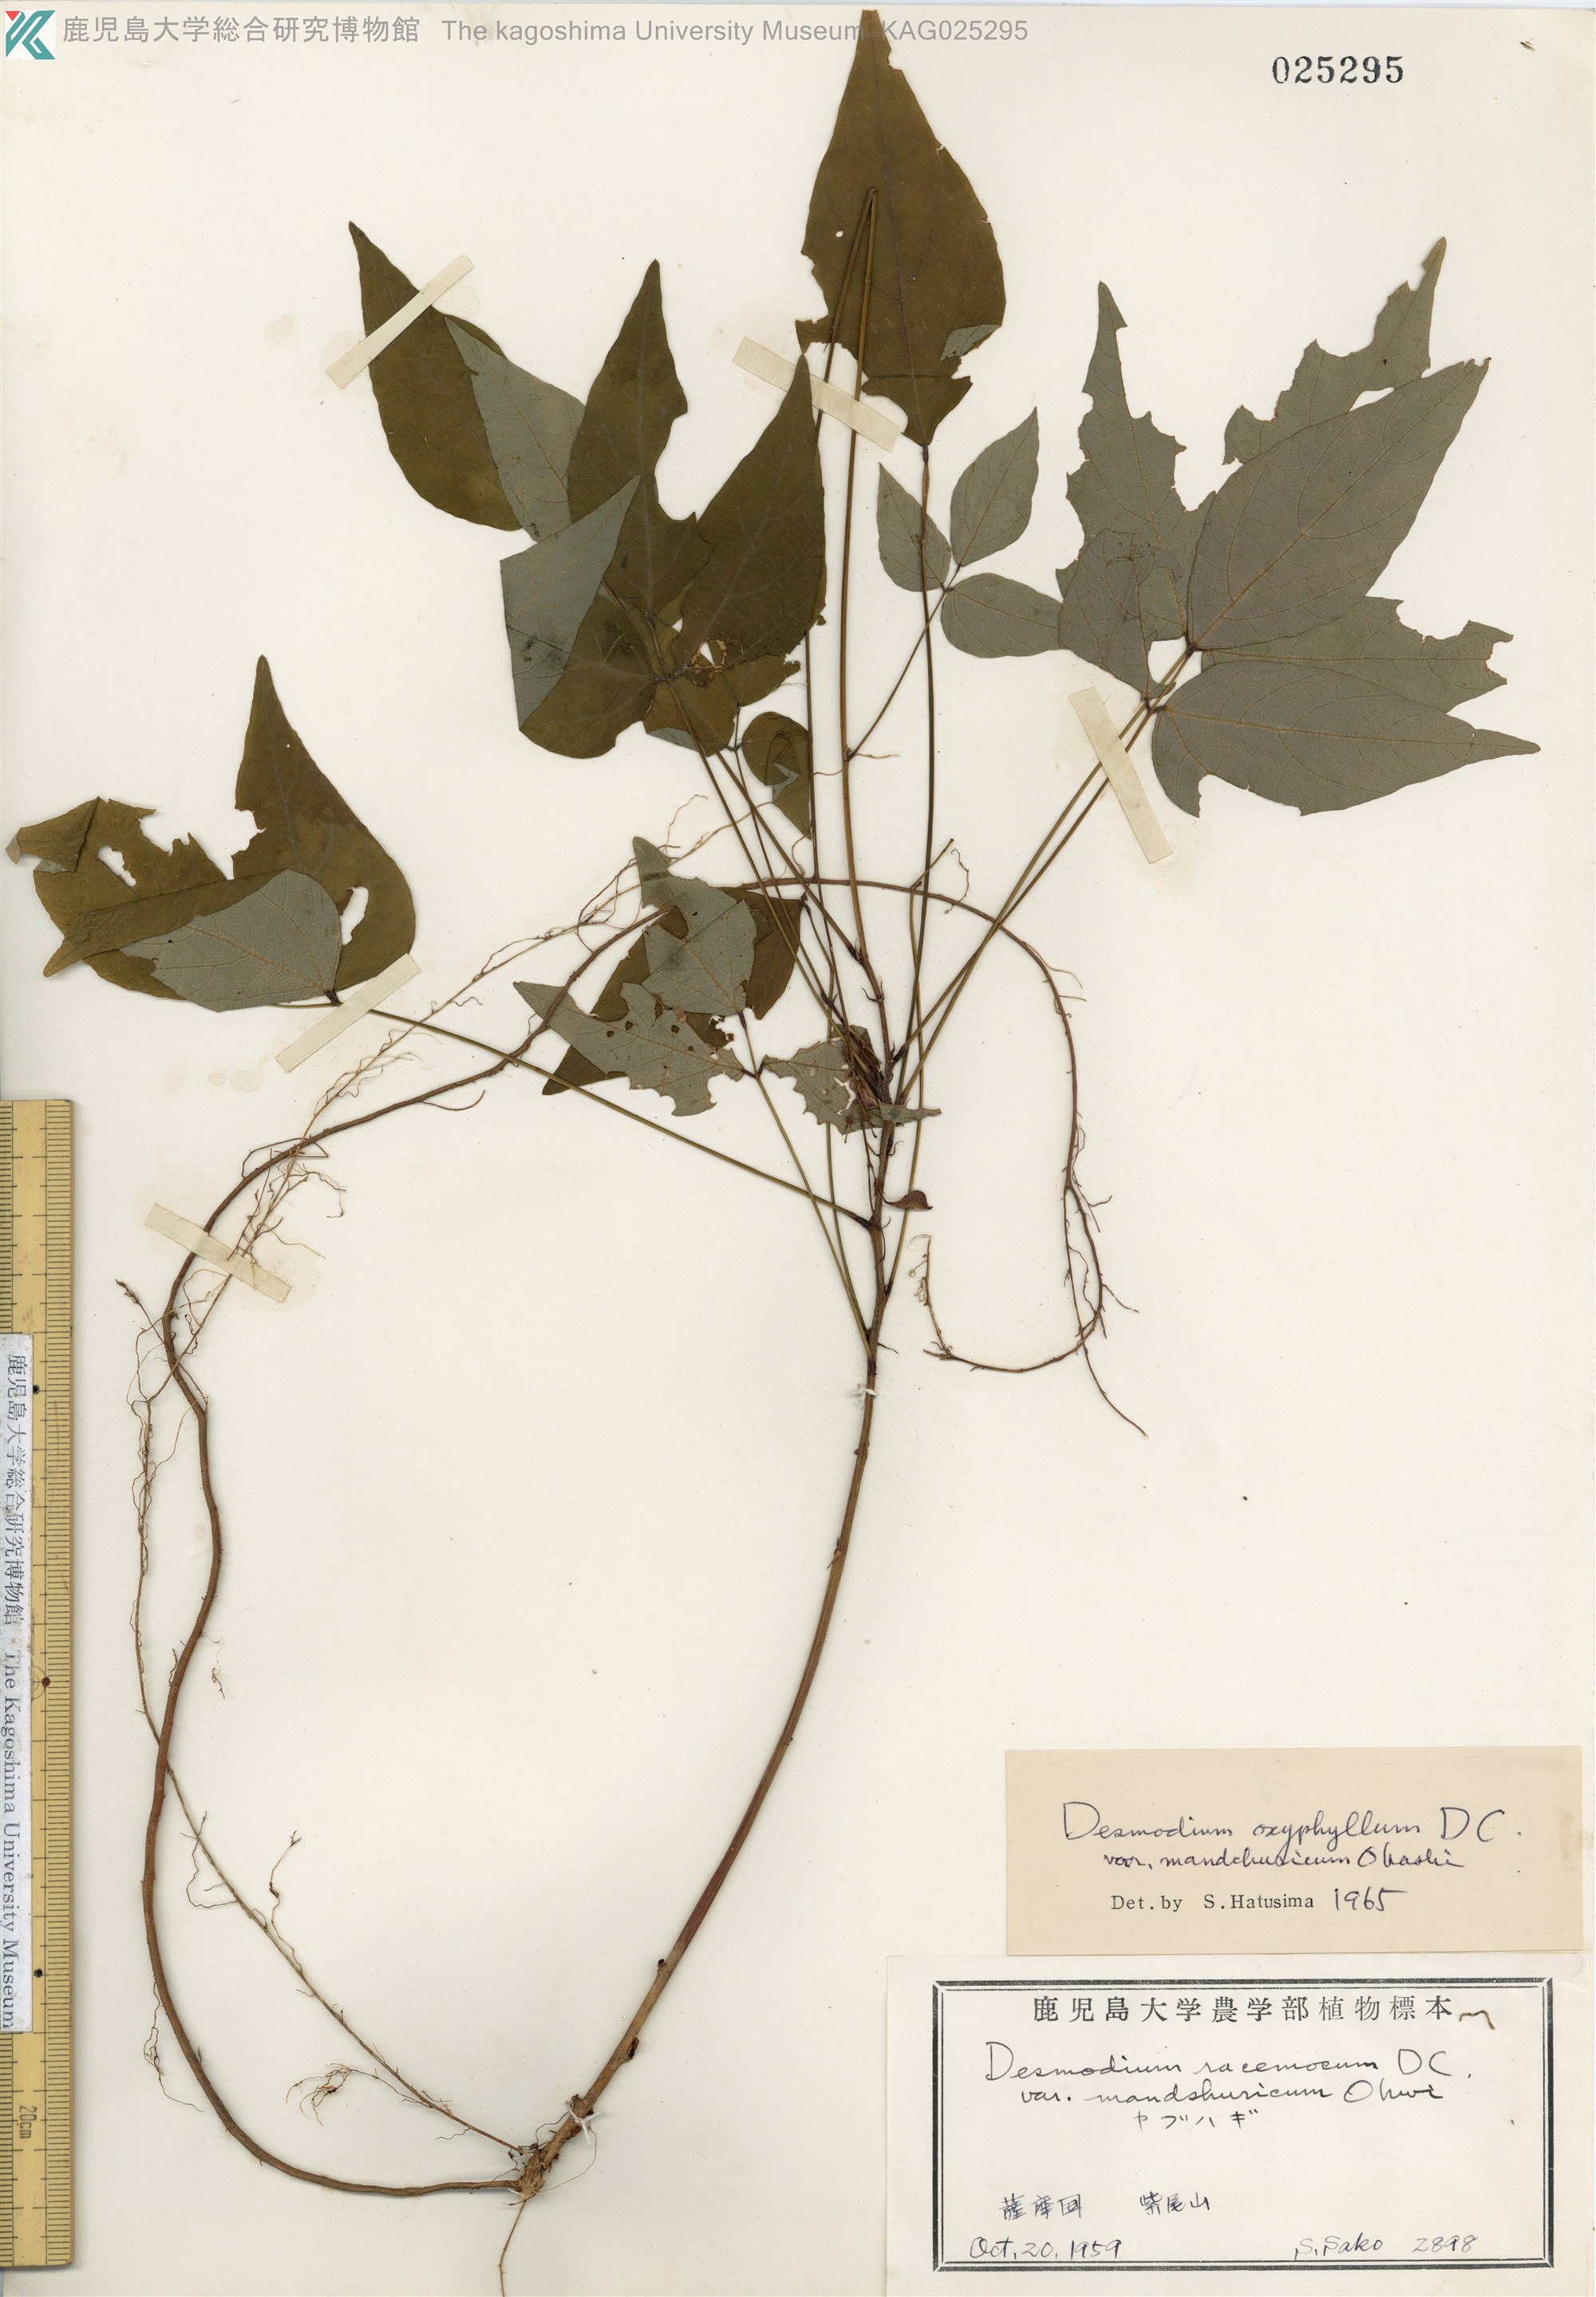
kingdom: Plantae
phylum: Tracheophyta
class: Magnoliopsida
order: Fabales
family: Fabaceae
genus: Hylodesmum
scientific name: Hylodesmum podocarpum
